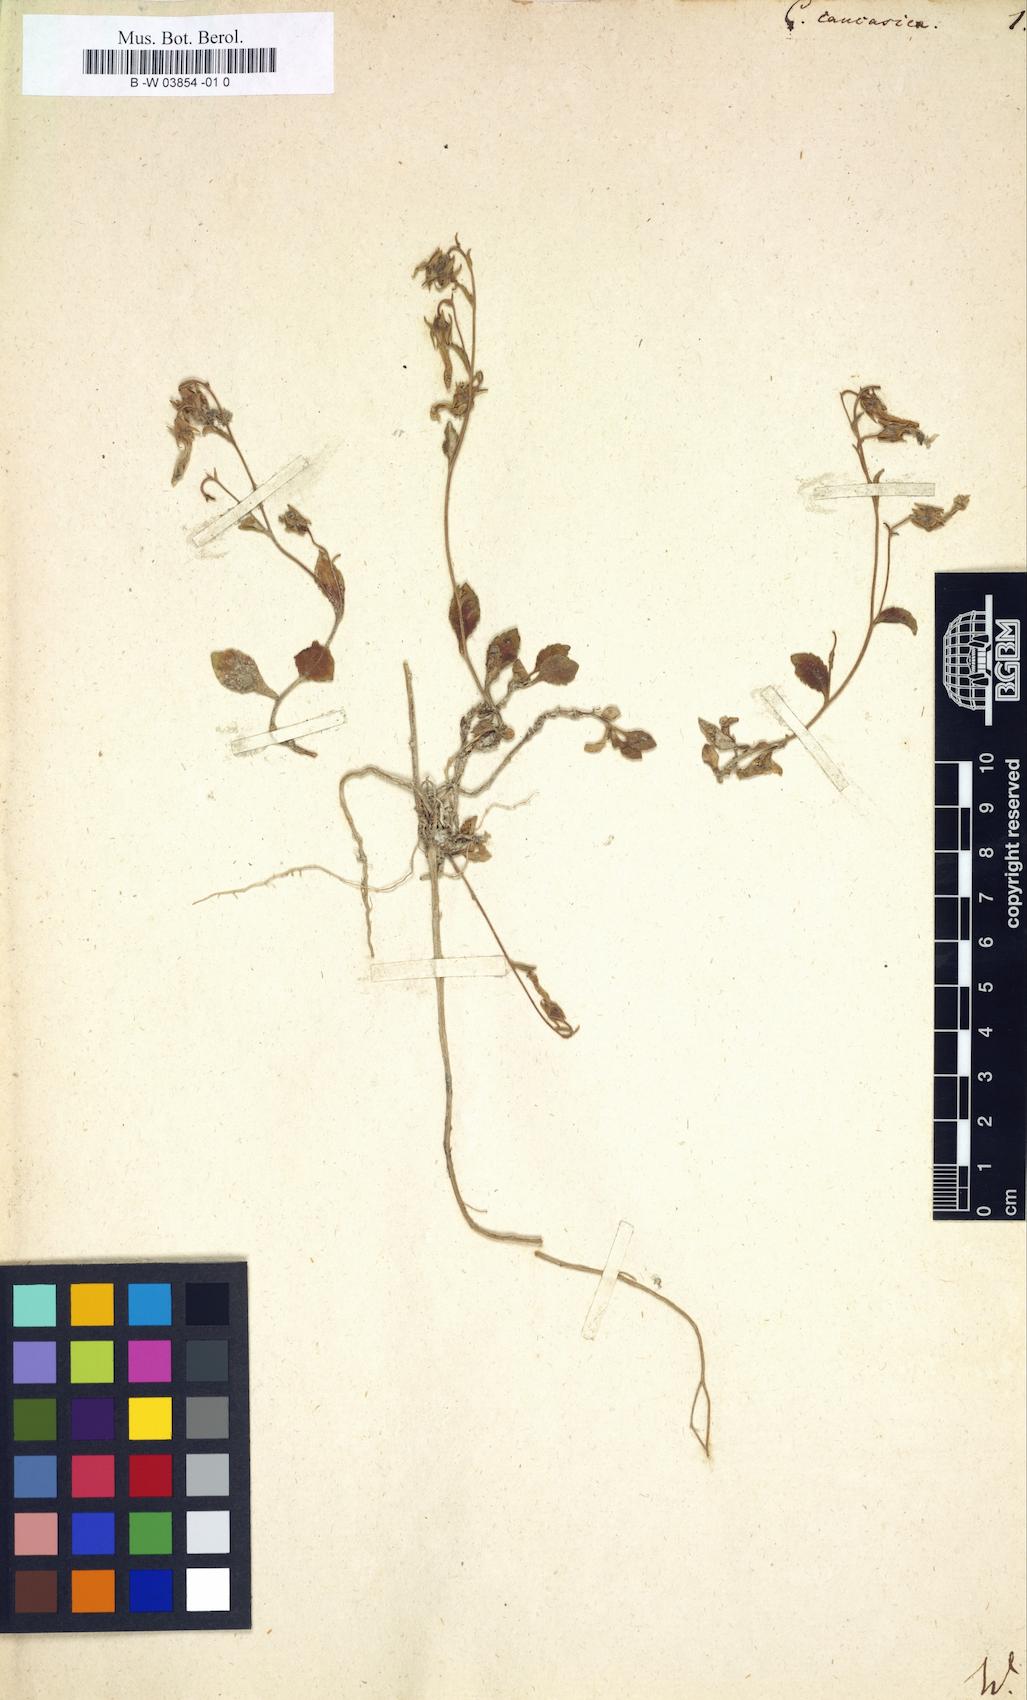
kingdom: Plantae
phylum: Tracheophyta
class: Magnoliopsida
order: Asterales
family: Campanulaceae
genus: Campanula
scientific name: Campanula caucasica
